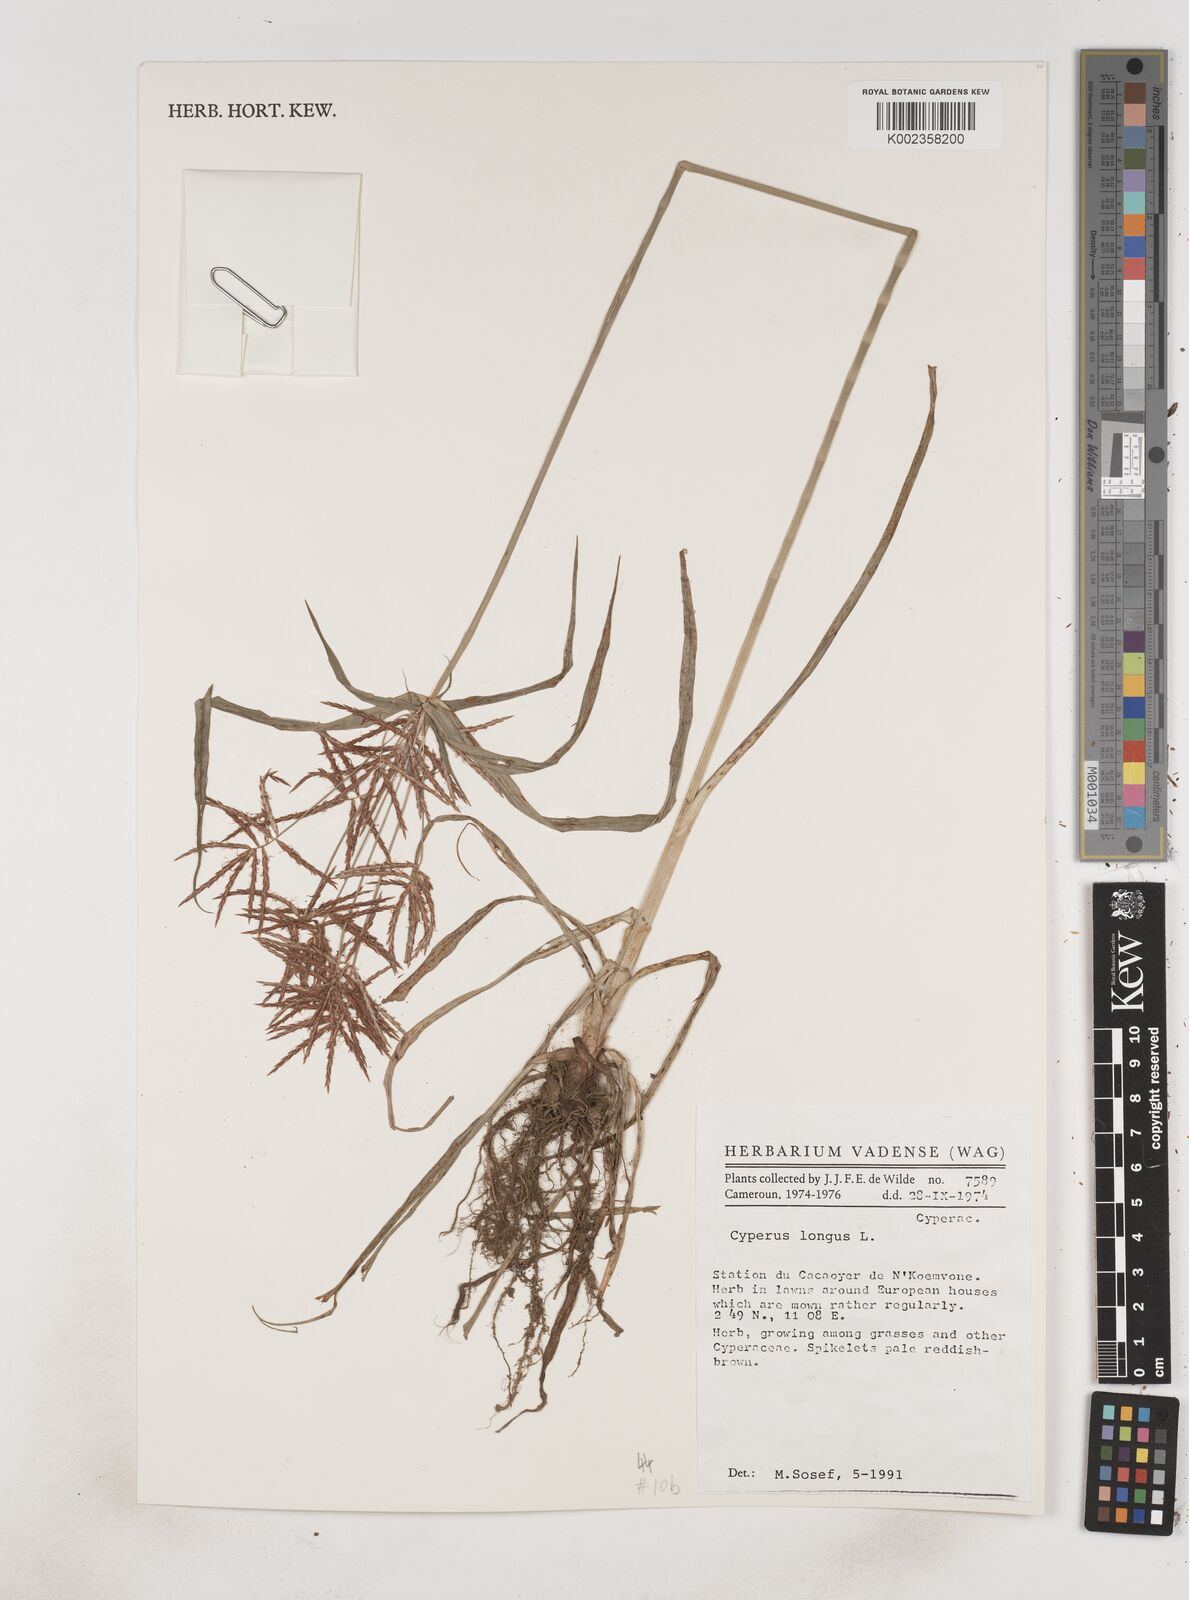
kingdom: Plantae
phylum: Tracheophyta
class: Liliopsida
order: Poales
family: Cyperaceae
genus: Cyperus
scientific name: Cyperus longus
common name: Galingale
